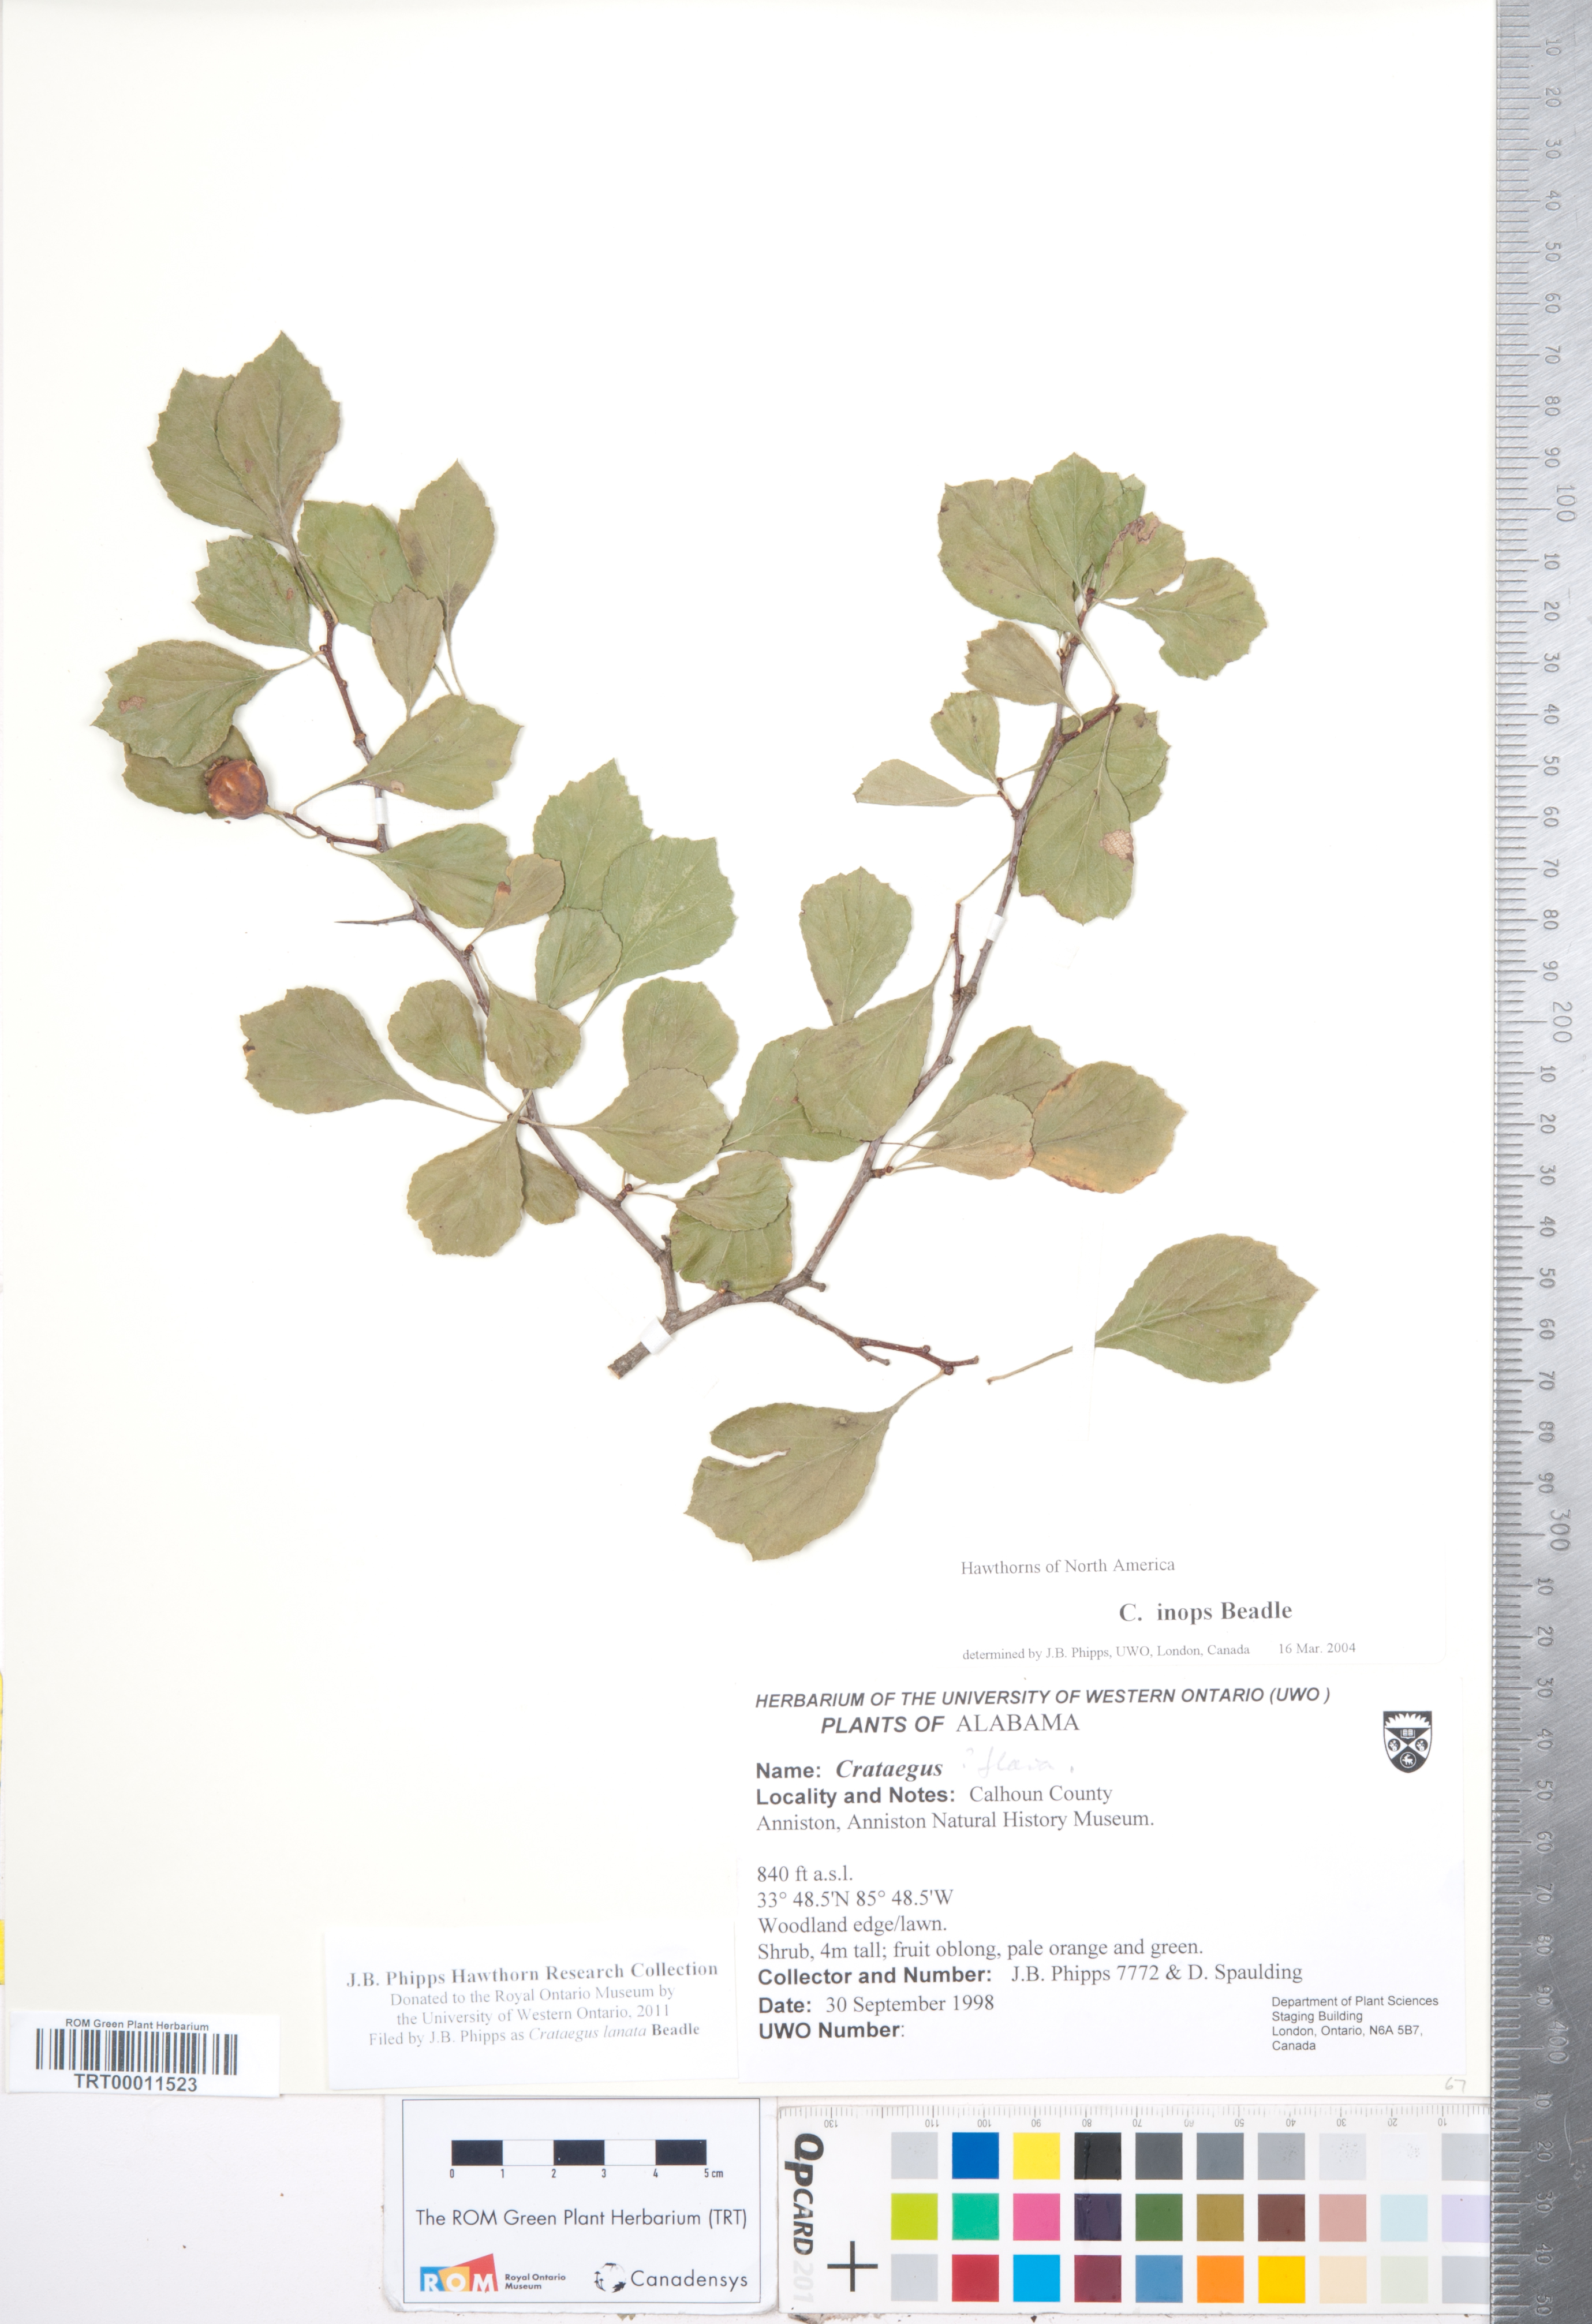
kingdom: Plantae
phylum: Tracheophyta
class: Magnoliopsida
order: Rosales
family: Rosaceae
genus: Crataegus
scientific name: Crataegus lassa
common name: Florida hawthorn
